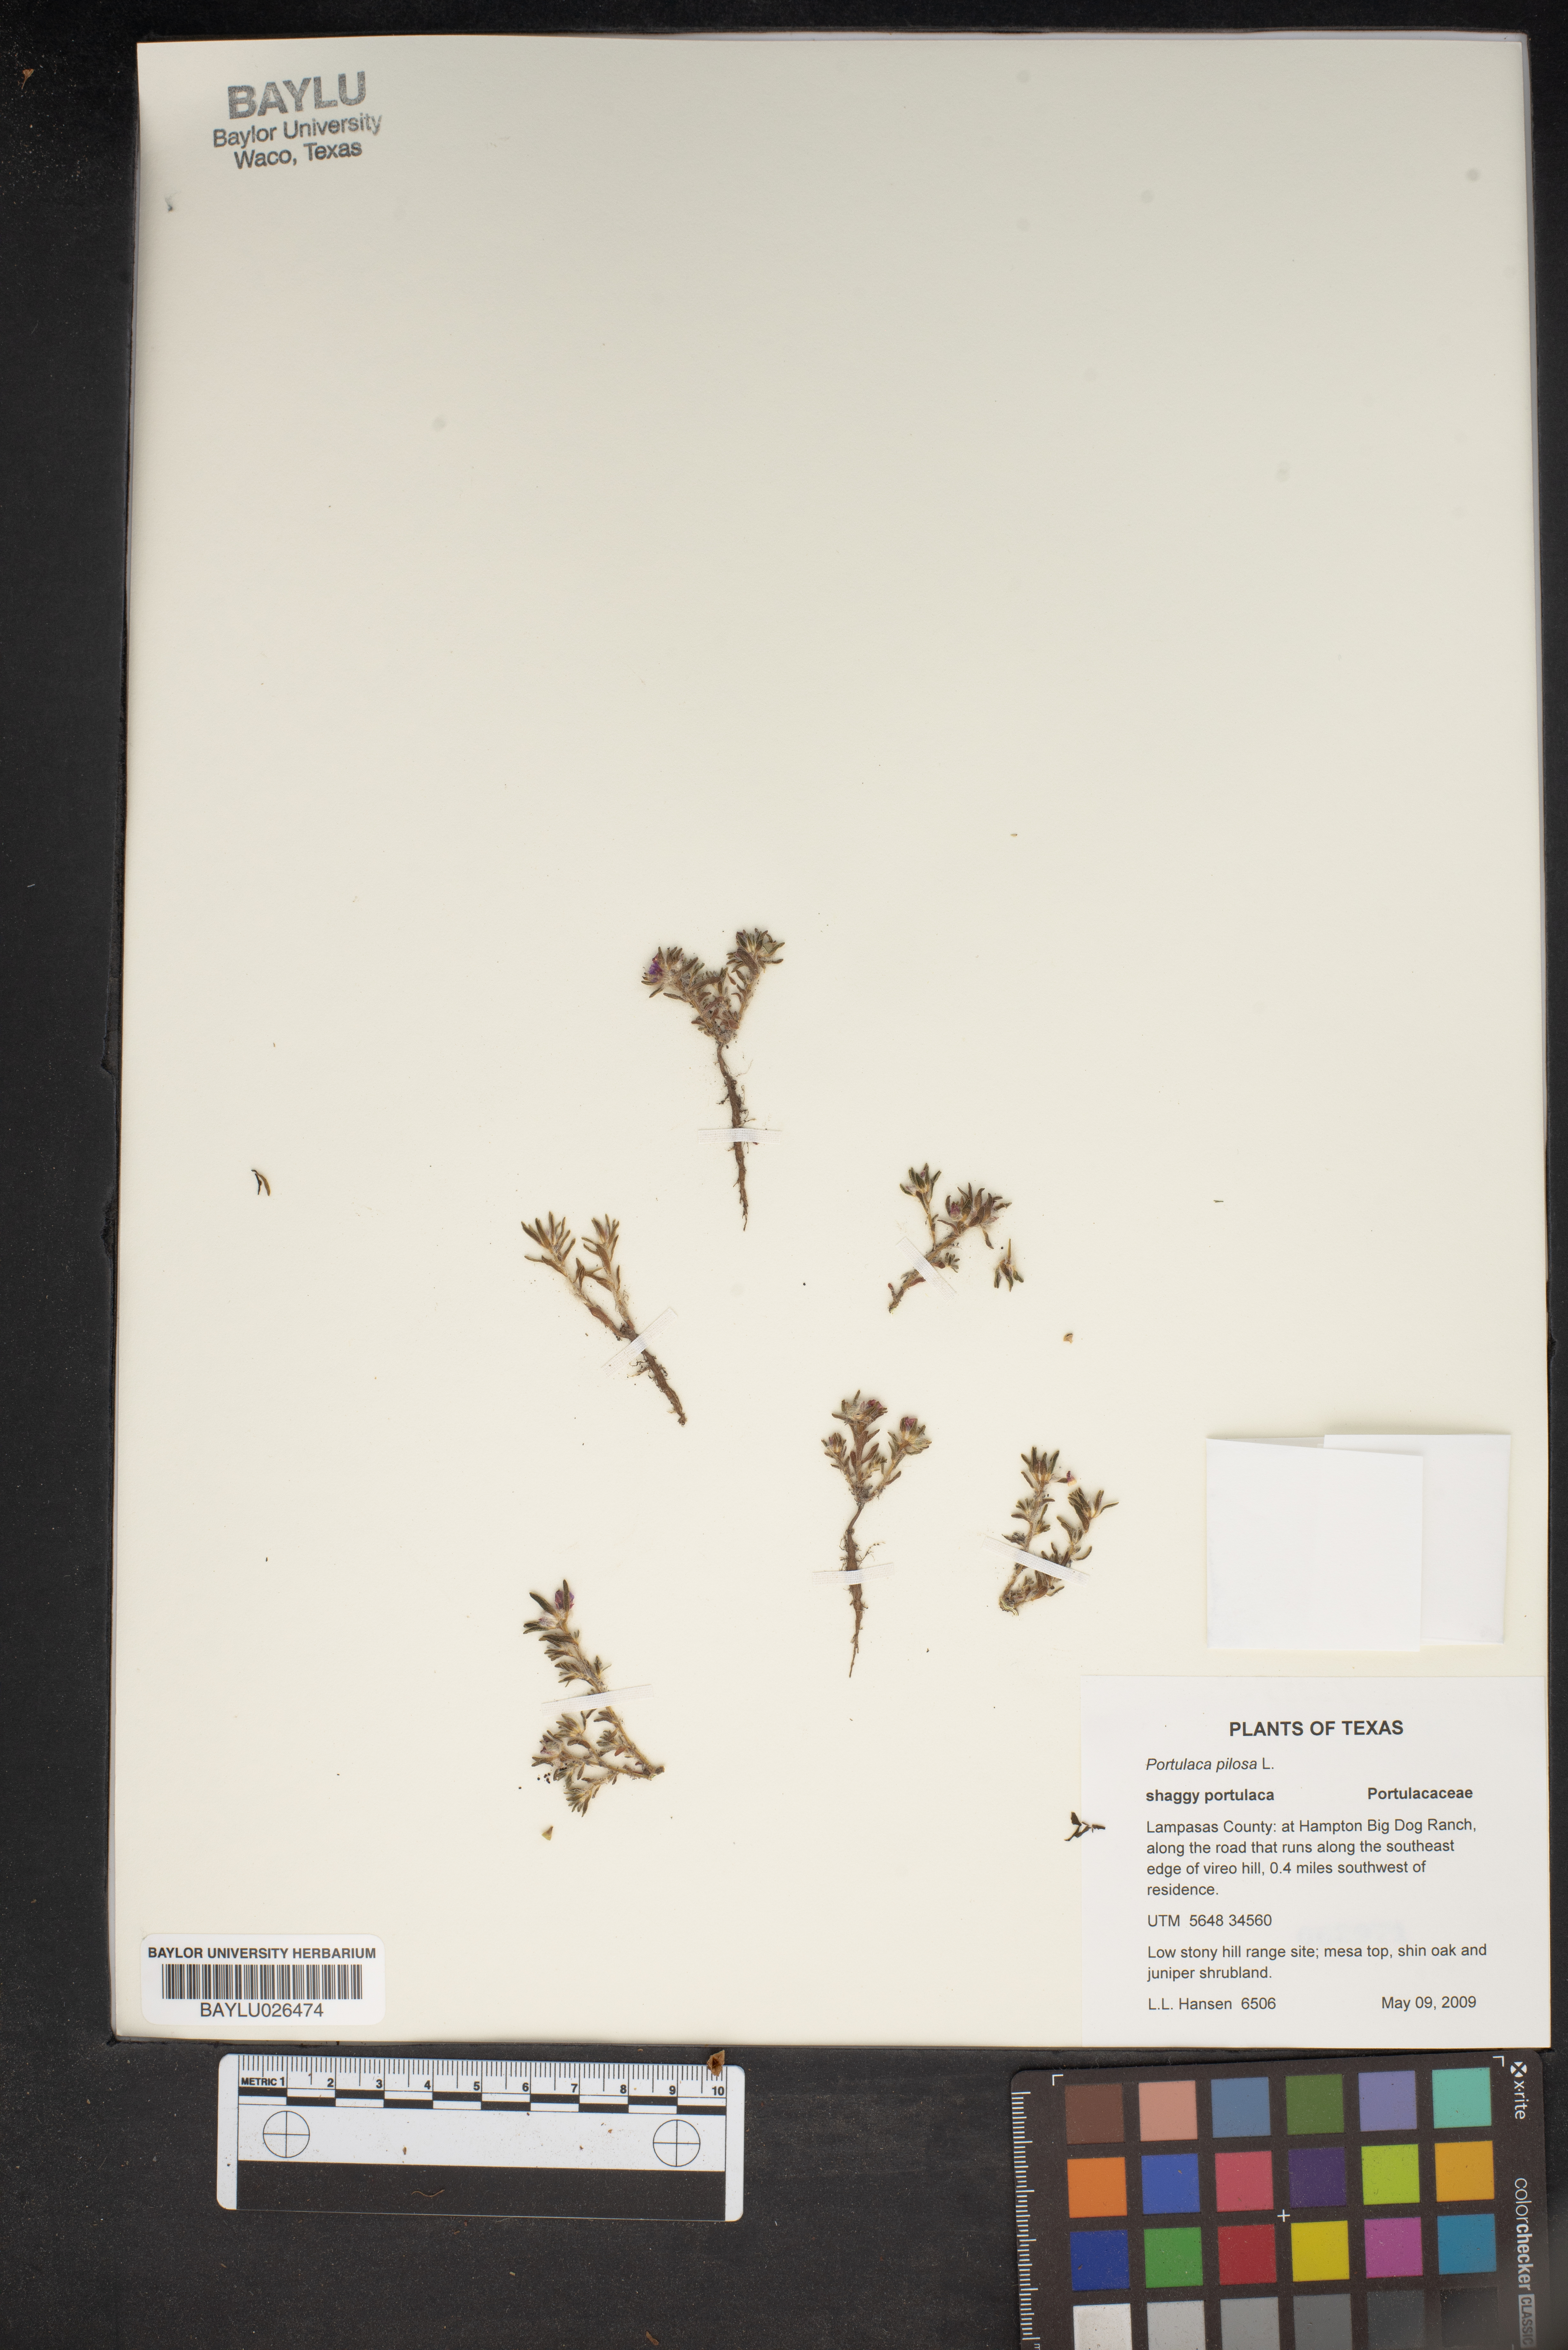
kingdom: Plantae
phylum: Tracheophyta
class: Magnoliopsida
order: Caryophyllales
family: Portulacaceae
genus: Portulaca
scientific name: Portulaca pilosa
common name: Kiss me quick
